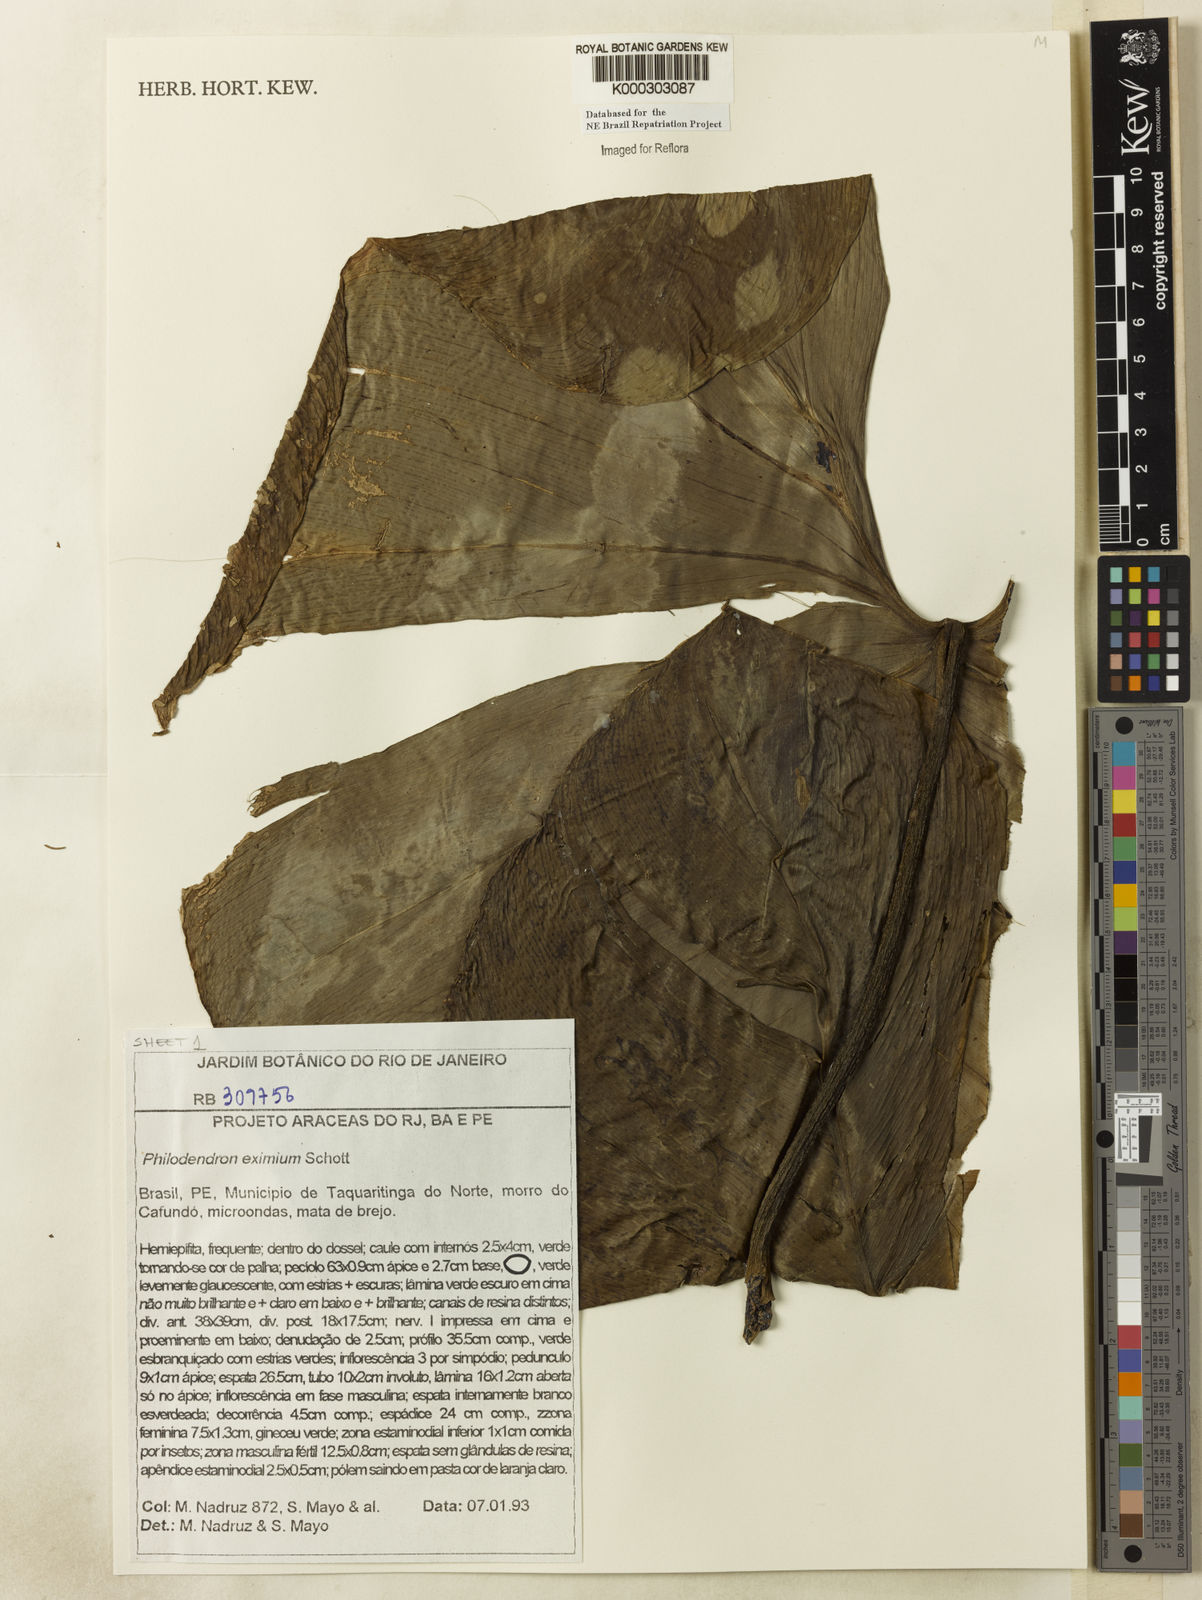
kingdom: Plantae
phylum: Tracheophyta
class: Liliopsida
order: Alismatales
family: Araceae
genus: Philodendron
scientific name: Philodendron eximium
